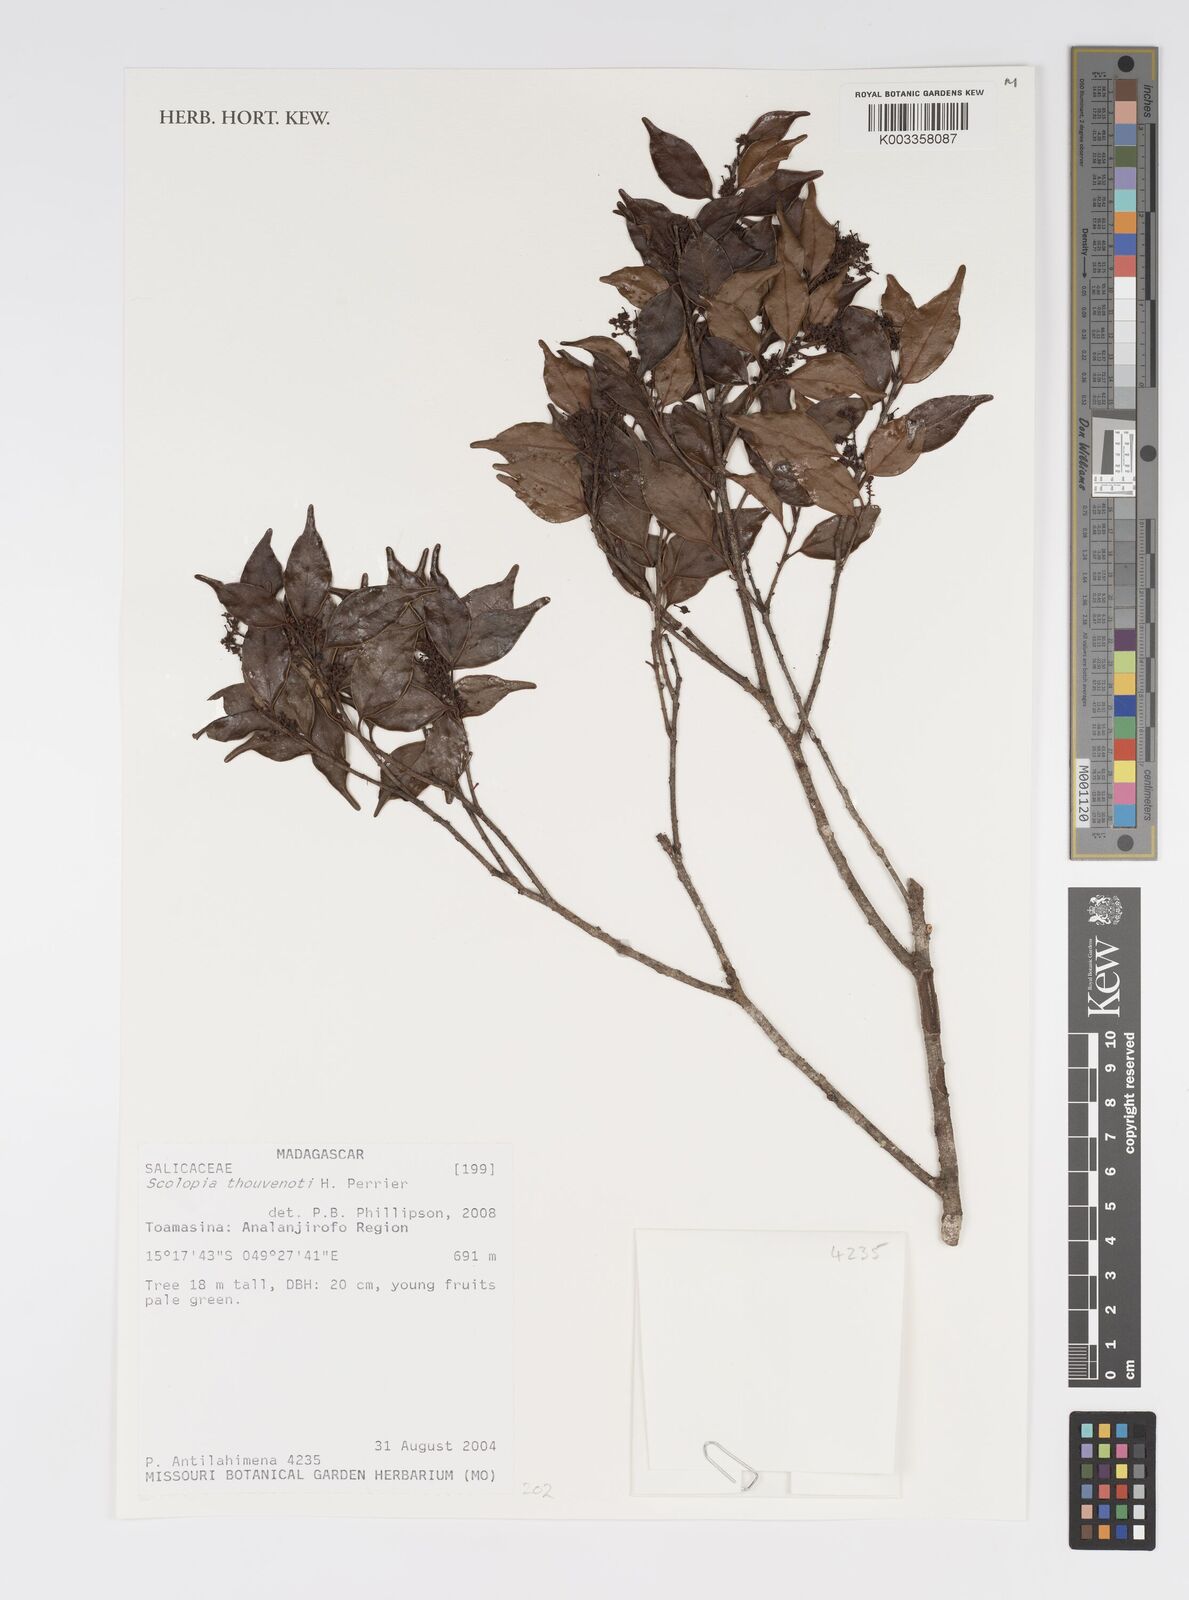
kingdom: Plantae
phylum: Tracheophyta
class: Magnoliopsida
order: Malpighiales
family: Salicaceae
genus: Scolopia
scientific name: Scolopia thouvenotii
